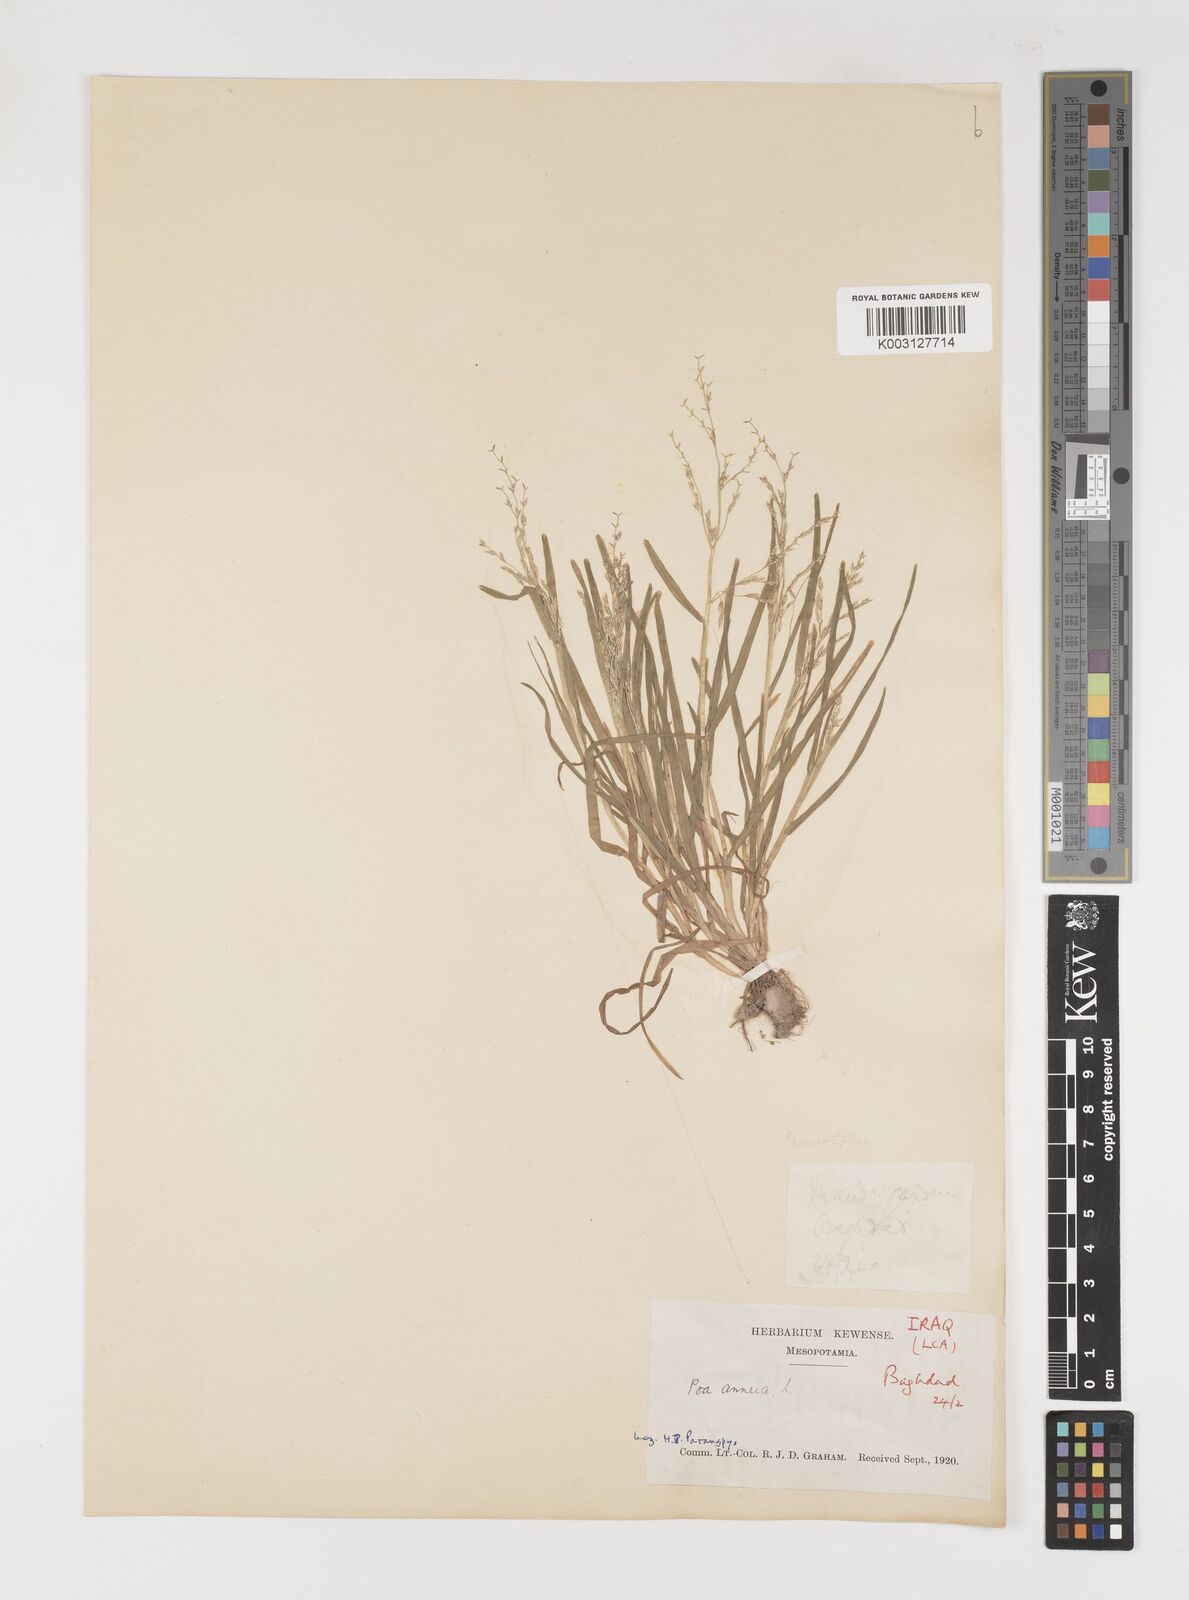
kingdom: Plantae
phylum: Tracheophyta
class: Liliopsida
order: Poales
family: Poaceae
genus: Poa
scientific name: Poa annua
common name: Annual bluegrass
